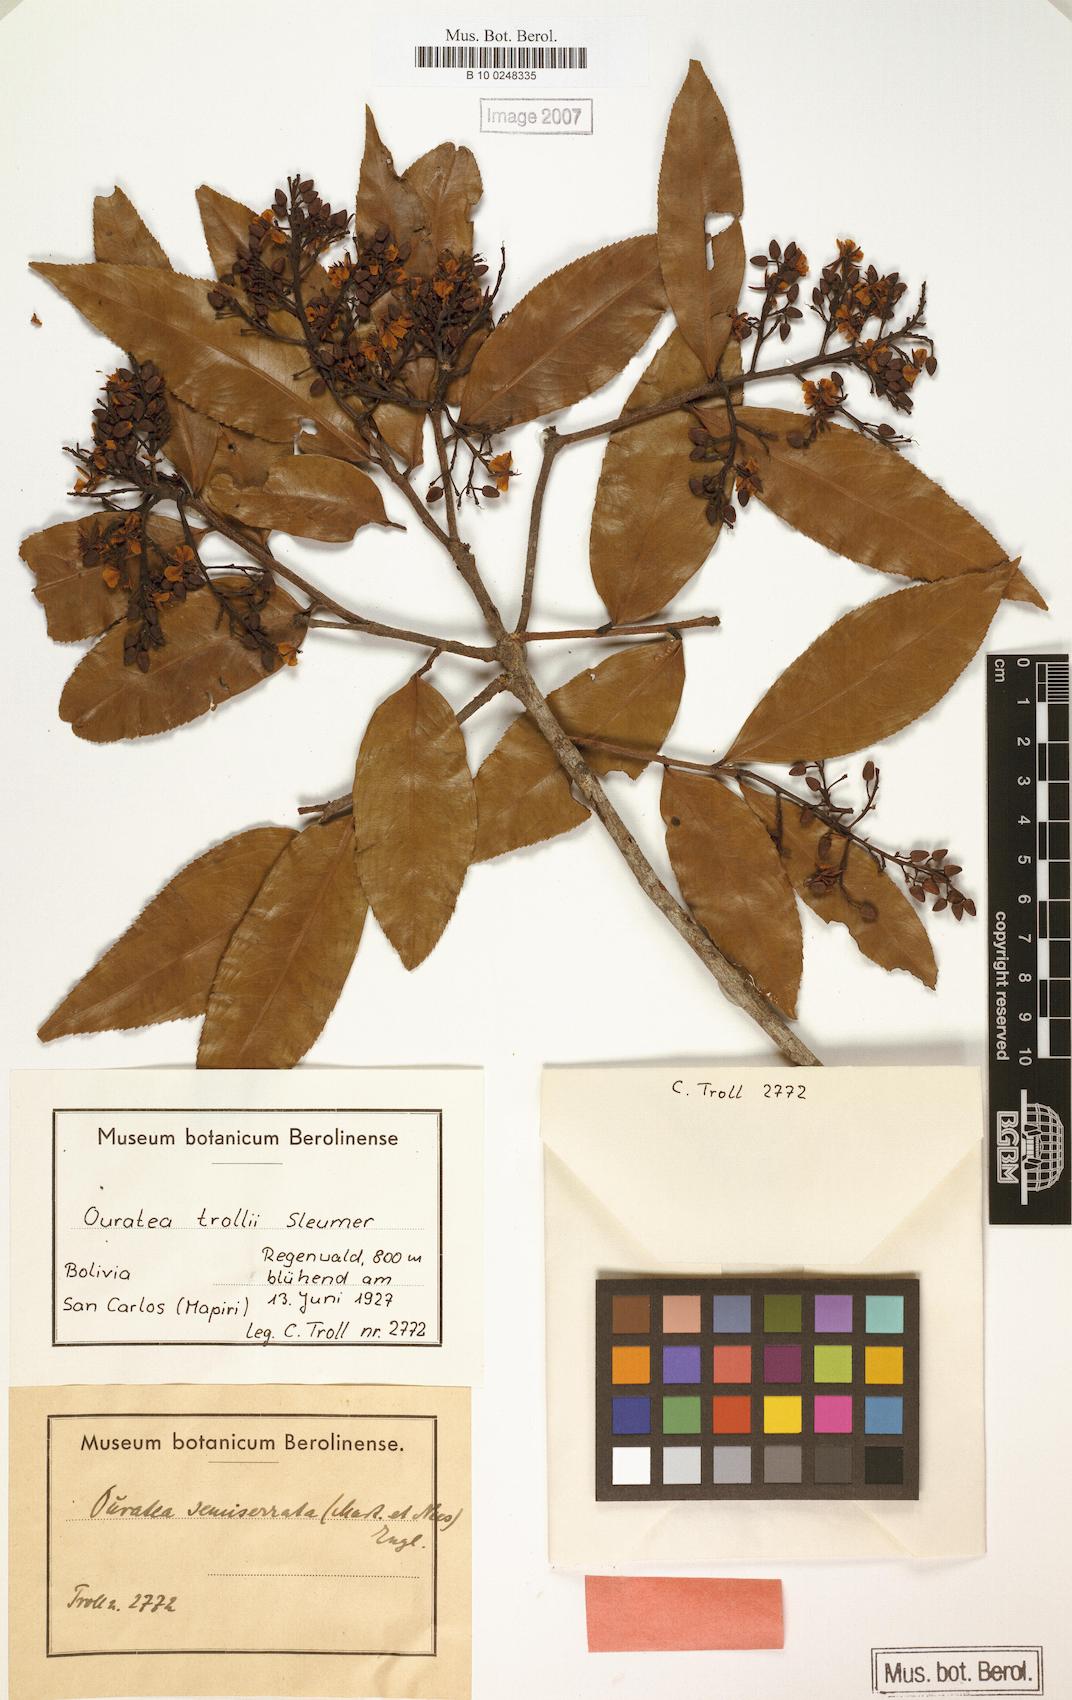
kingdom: Plantae
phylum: Tracheophyta
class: Magnoliopsida
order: Malpighiales
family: Ochnaceae
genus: Ouratea
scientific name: Ouratea trollii
